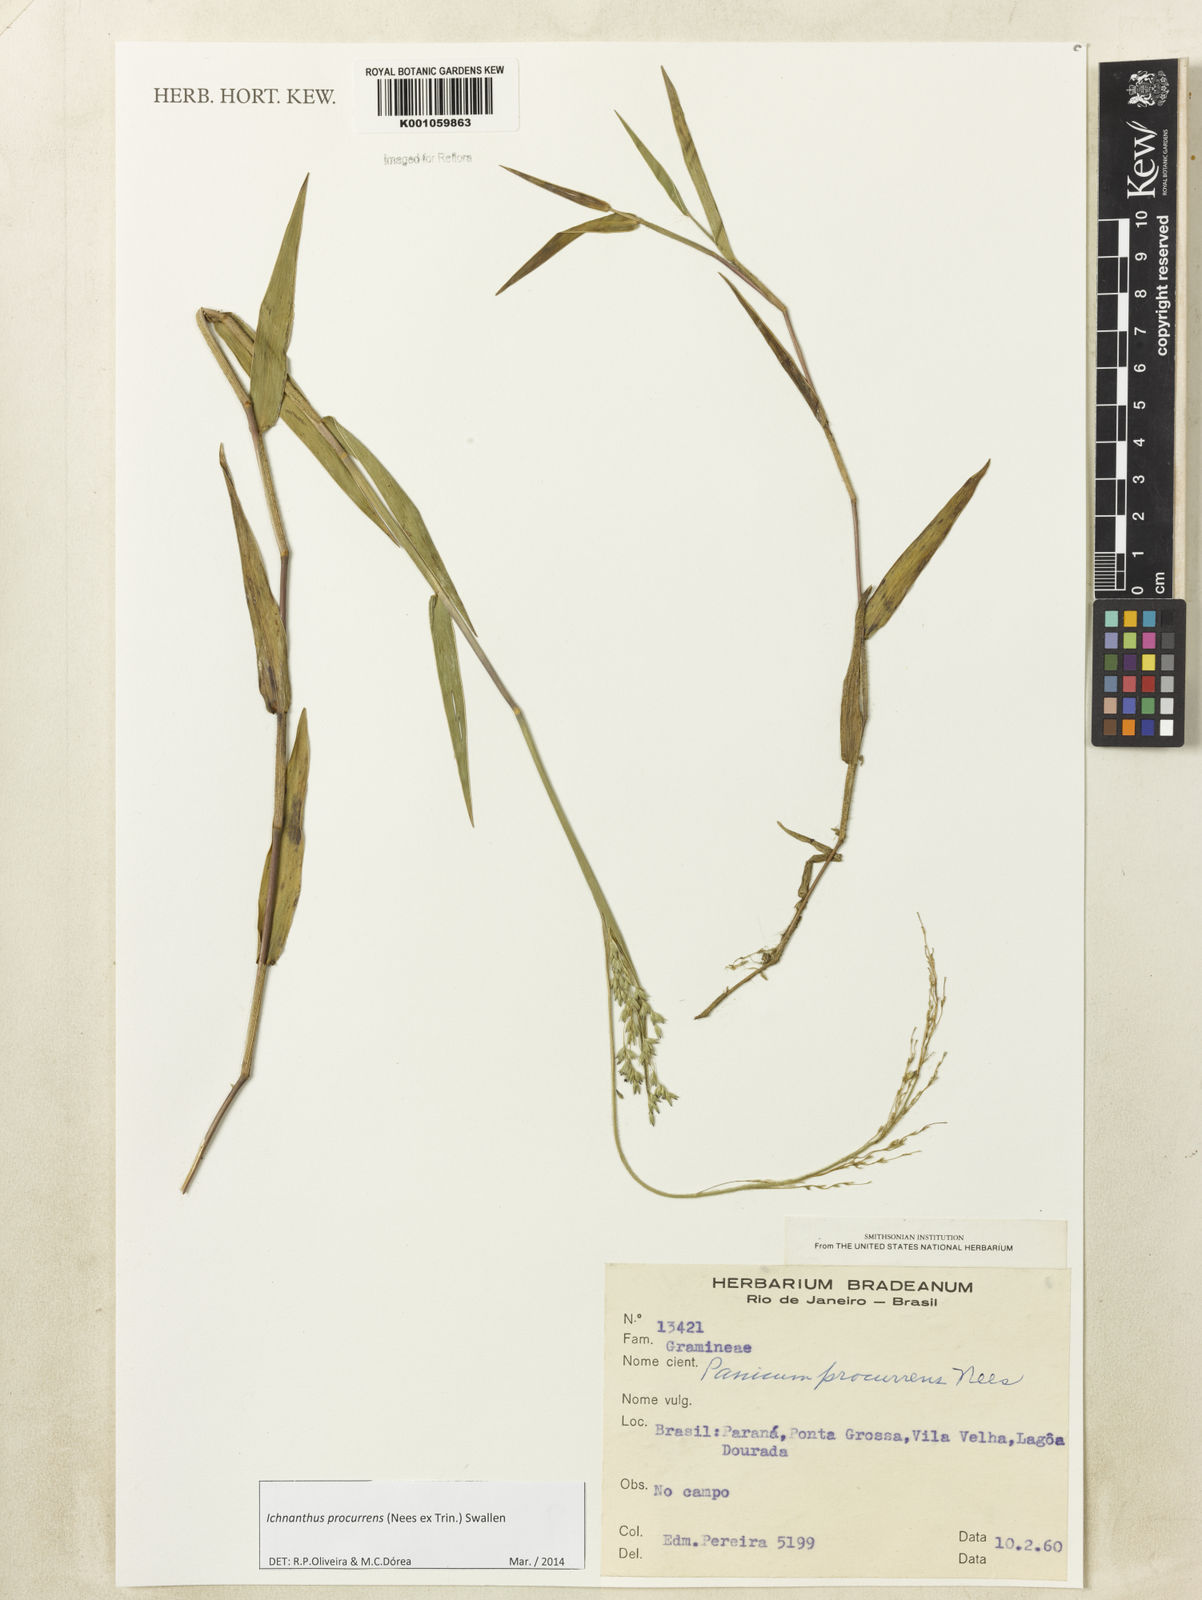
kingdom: Plantae
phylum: Tracheophyta
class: Liliopsida
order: Poales
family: Poaceae
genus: Oedochloa
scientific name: Oedochloa procurrens
